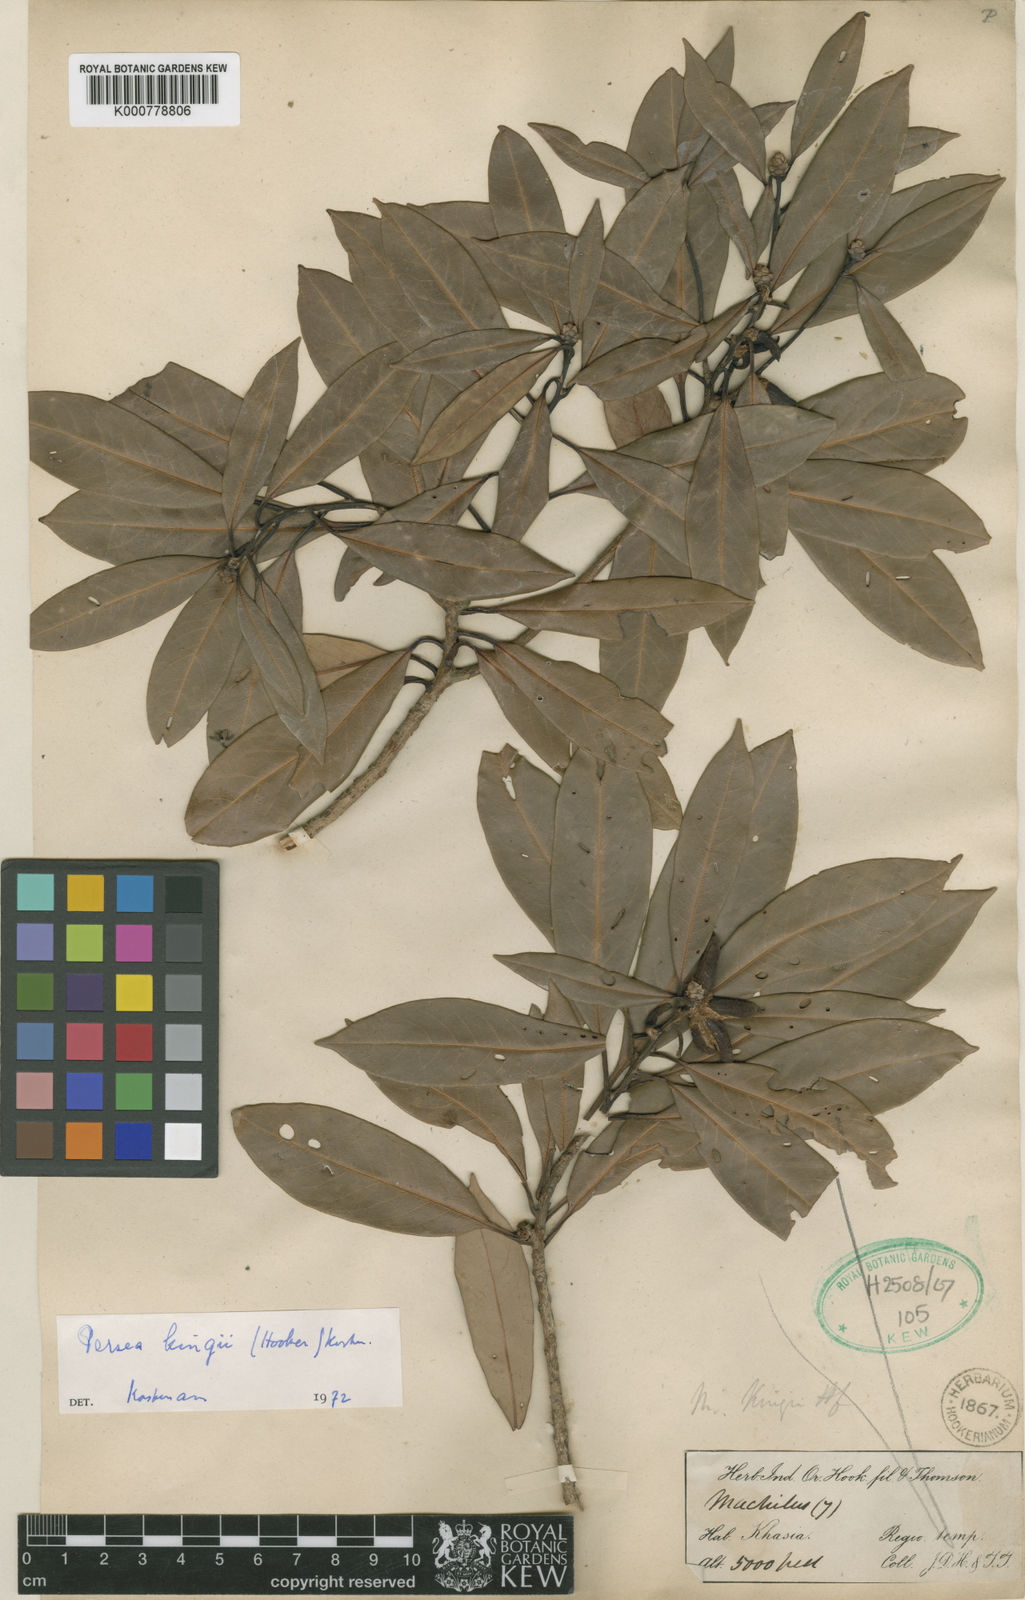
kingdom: Plantae
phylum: Tracheophyta
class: Magnoliopsida
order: Laurales
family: Lauraceae
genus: Machilus
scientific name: Machilus kingii
